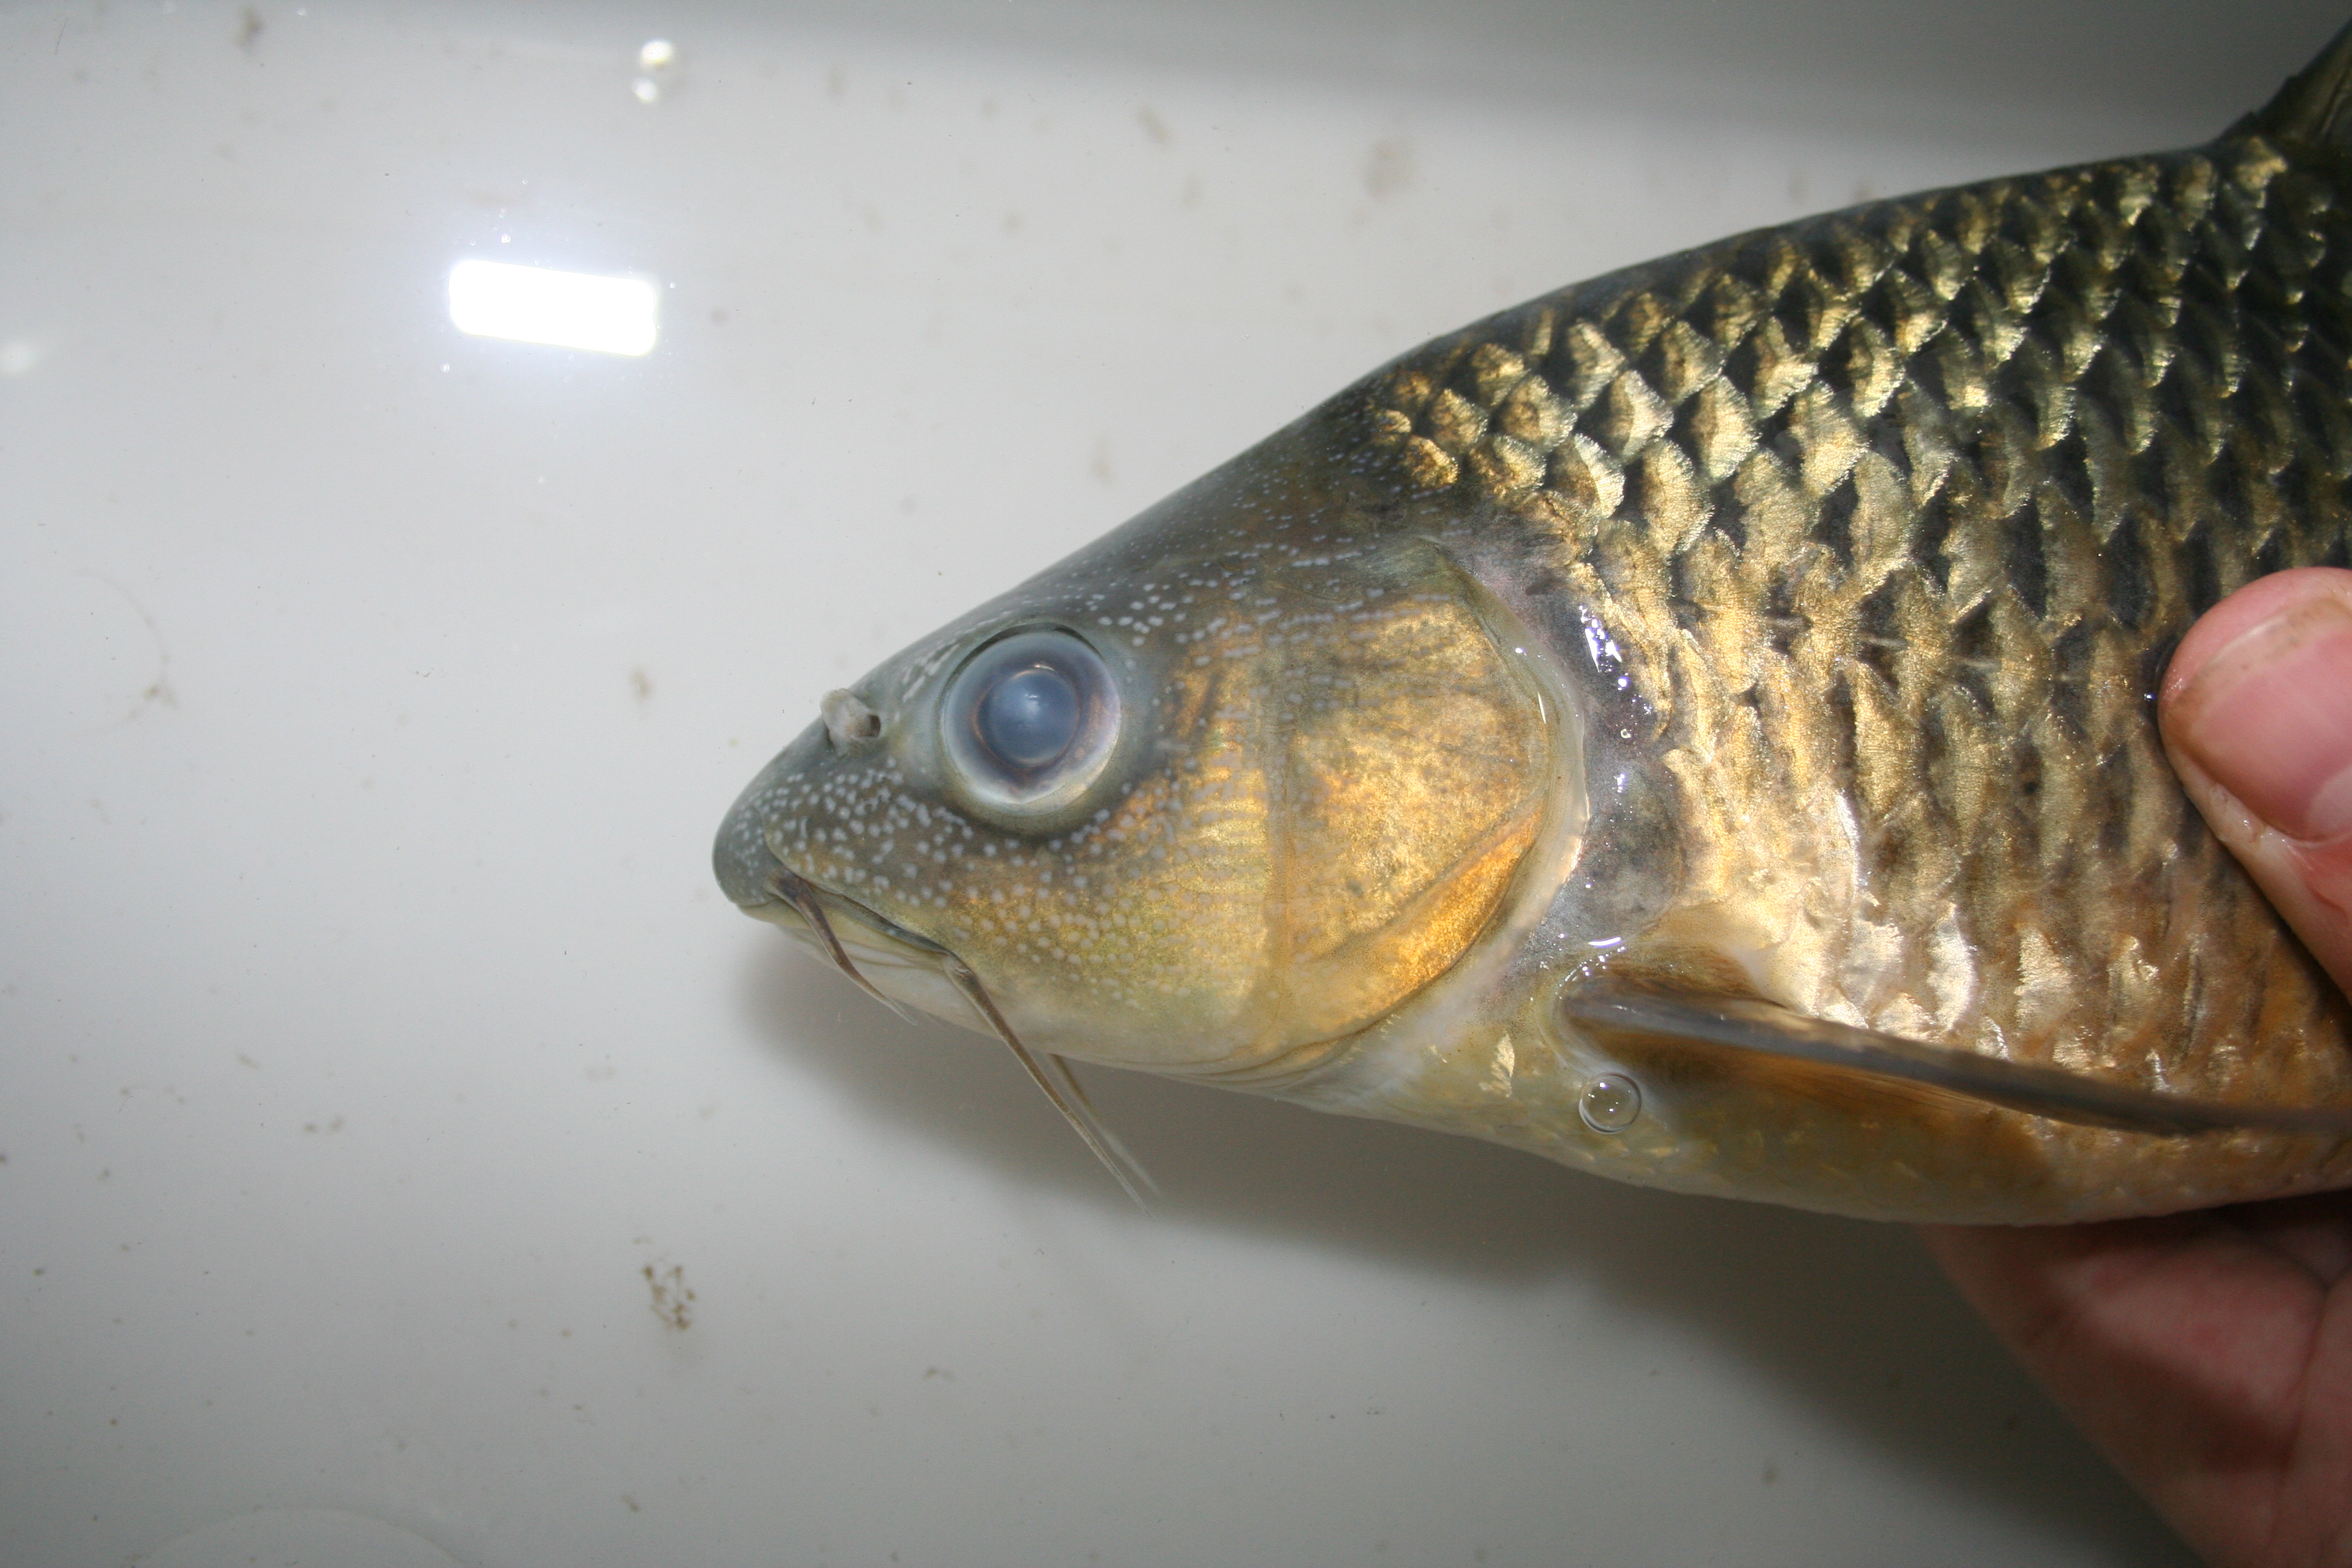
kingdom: Animalia
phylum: Chordata
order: Cypriniformes
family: Cyprinidae
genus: Barbus
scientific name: Barbus
